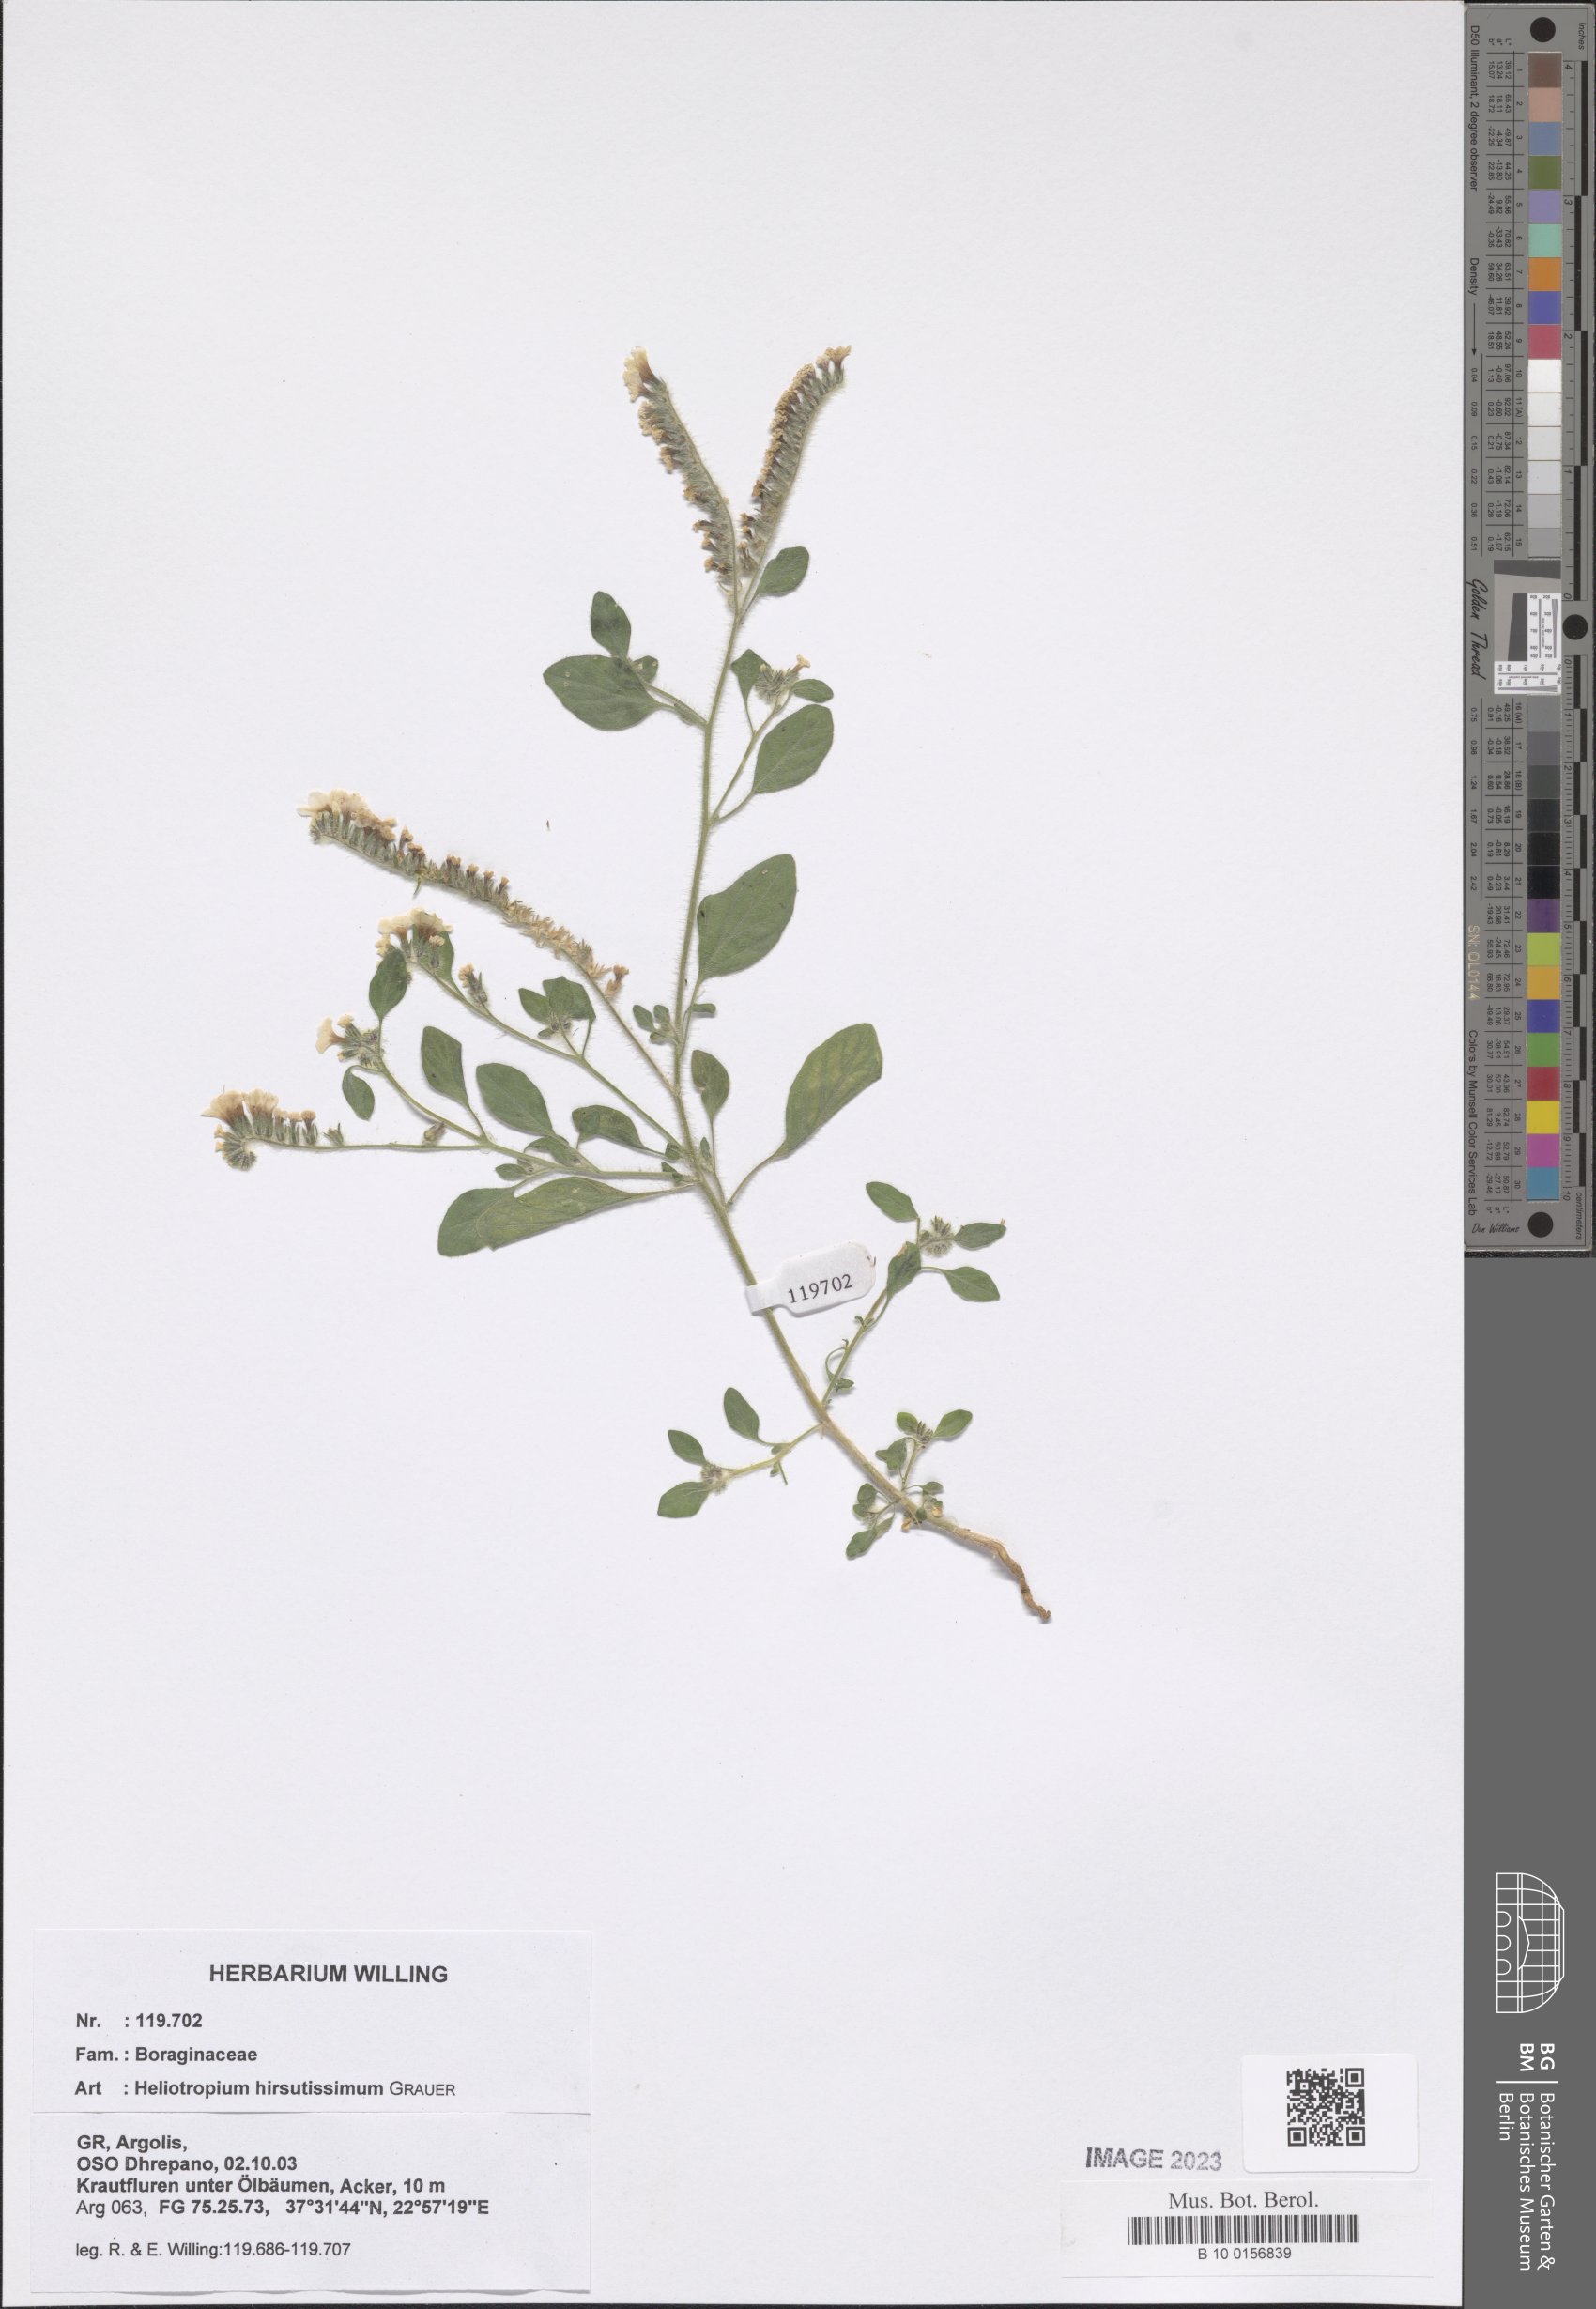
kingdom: Plantae
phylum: Tracheophyta
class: Magnoliopsida
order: Boraginales
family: Heliotropiaceae
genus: Heliotropium
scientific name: Heliotropium hirsutissimum
